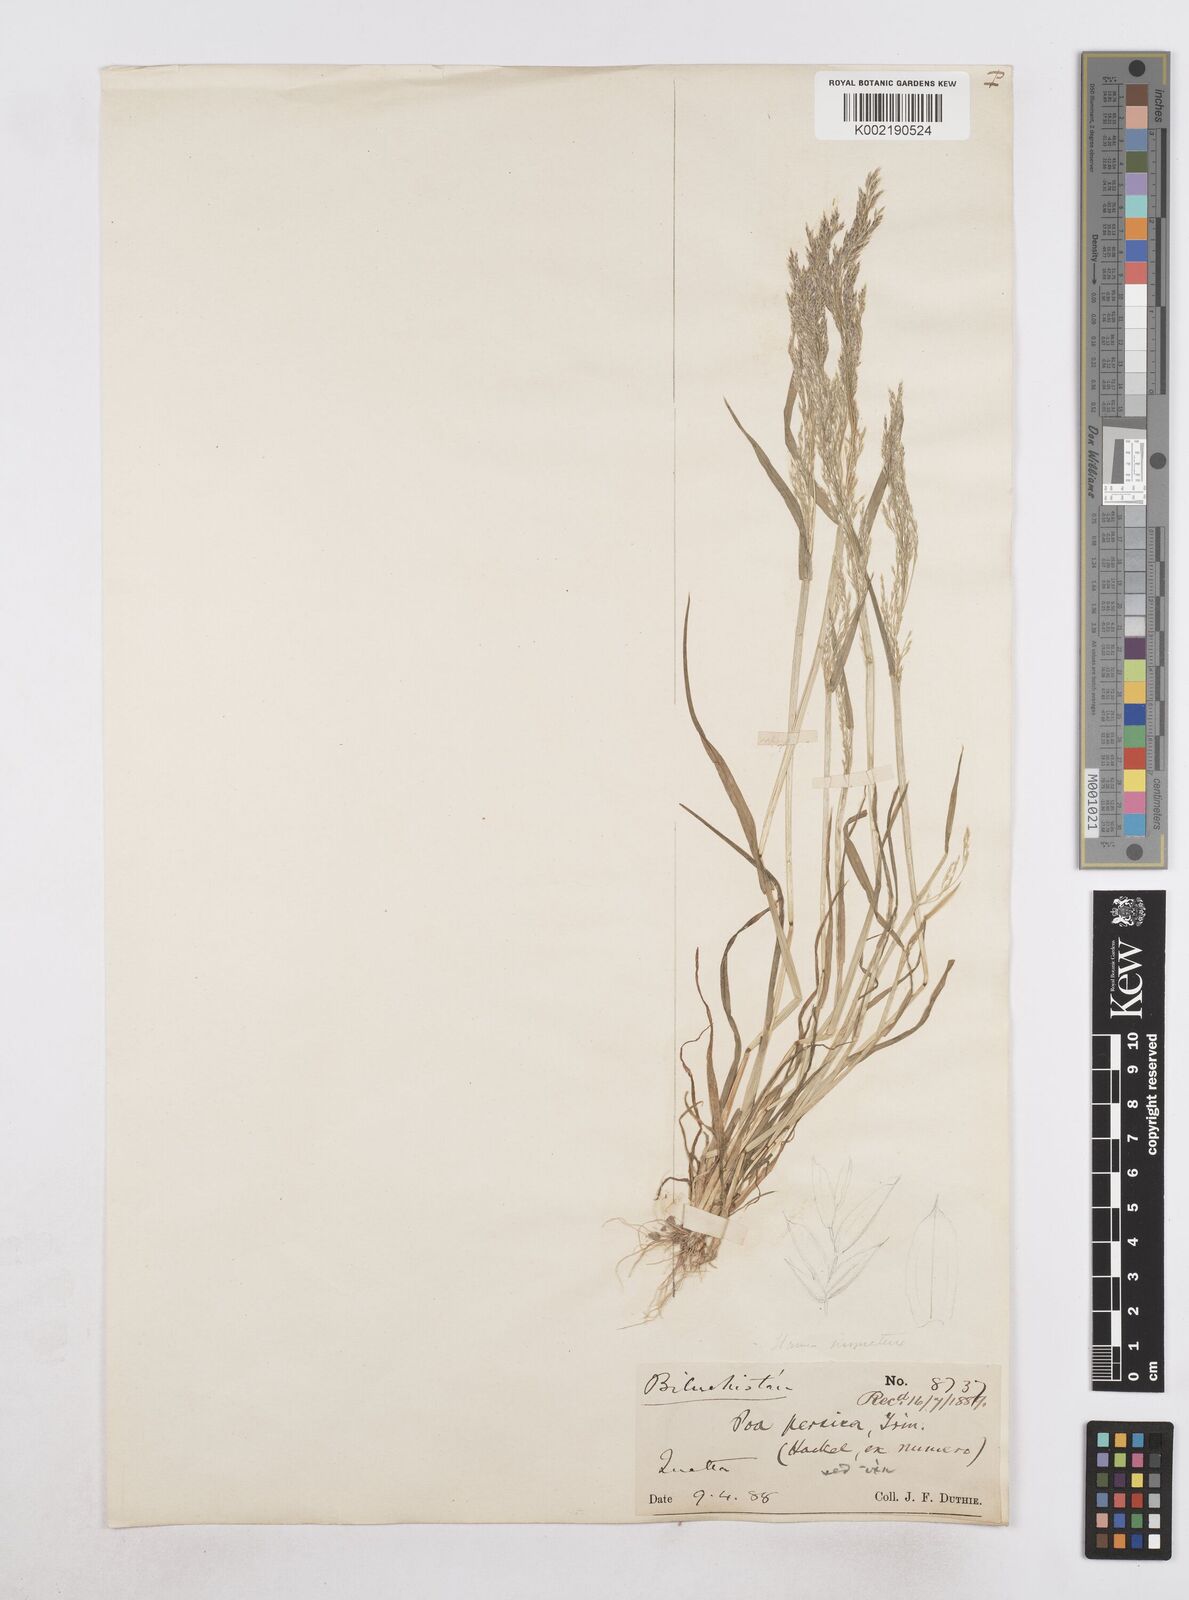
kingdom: Plantae
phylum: Tracheophyta
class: Liliopsida
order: Poales
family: Poaceae
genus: Poa
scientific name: Poa persica
